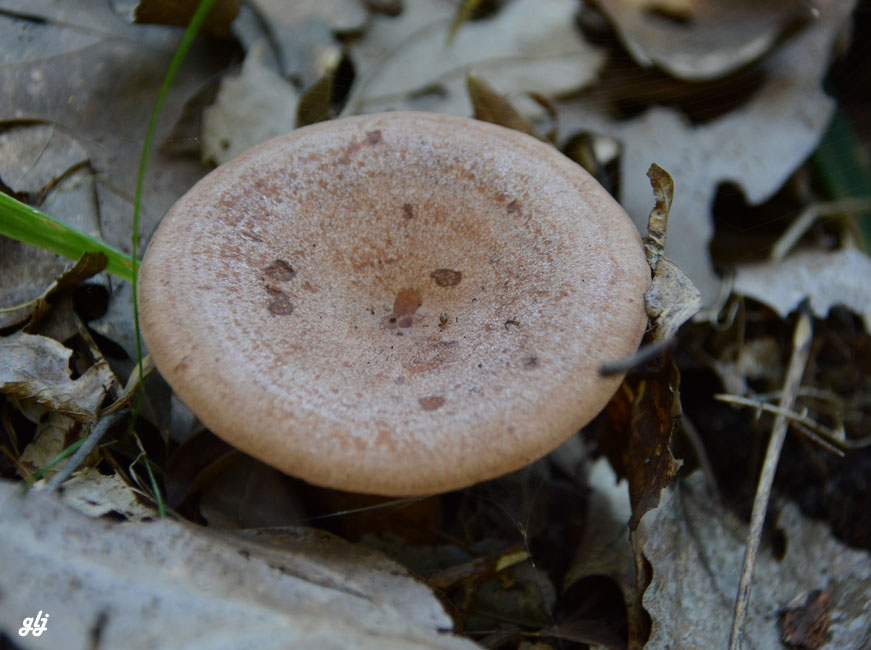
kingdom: Fungi
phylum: Basidiomycota
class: Agaricomycetes
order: Russulales
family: Russulaceae
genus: Lactarius
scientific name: Lactarius quietus
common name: ege-mælkehat
